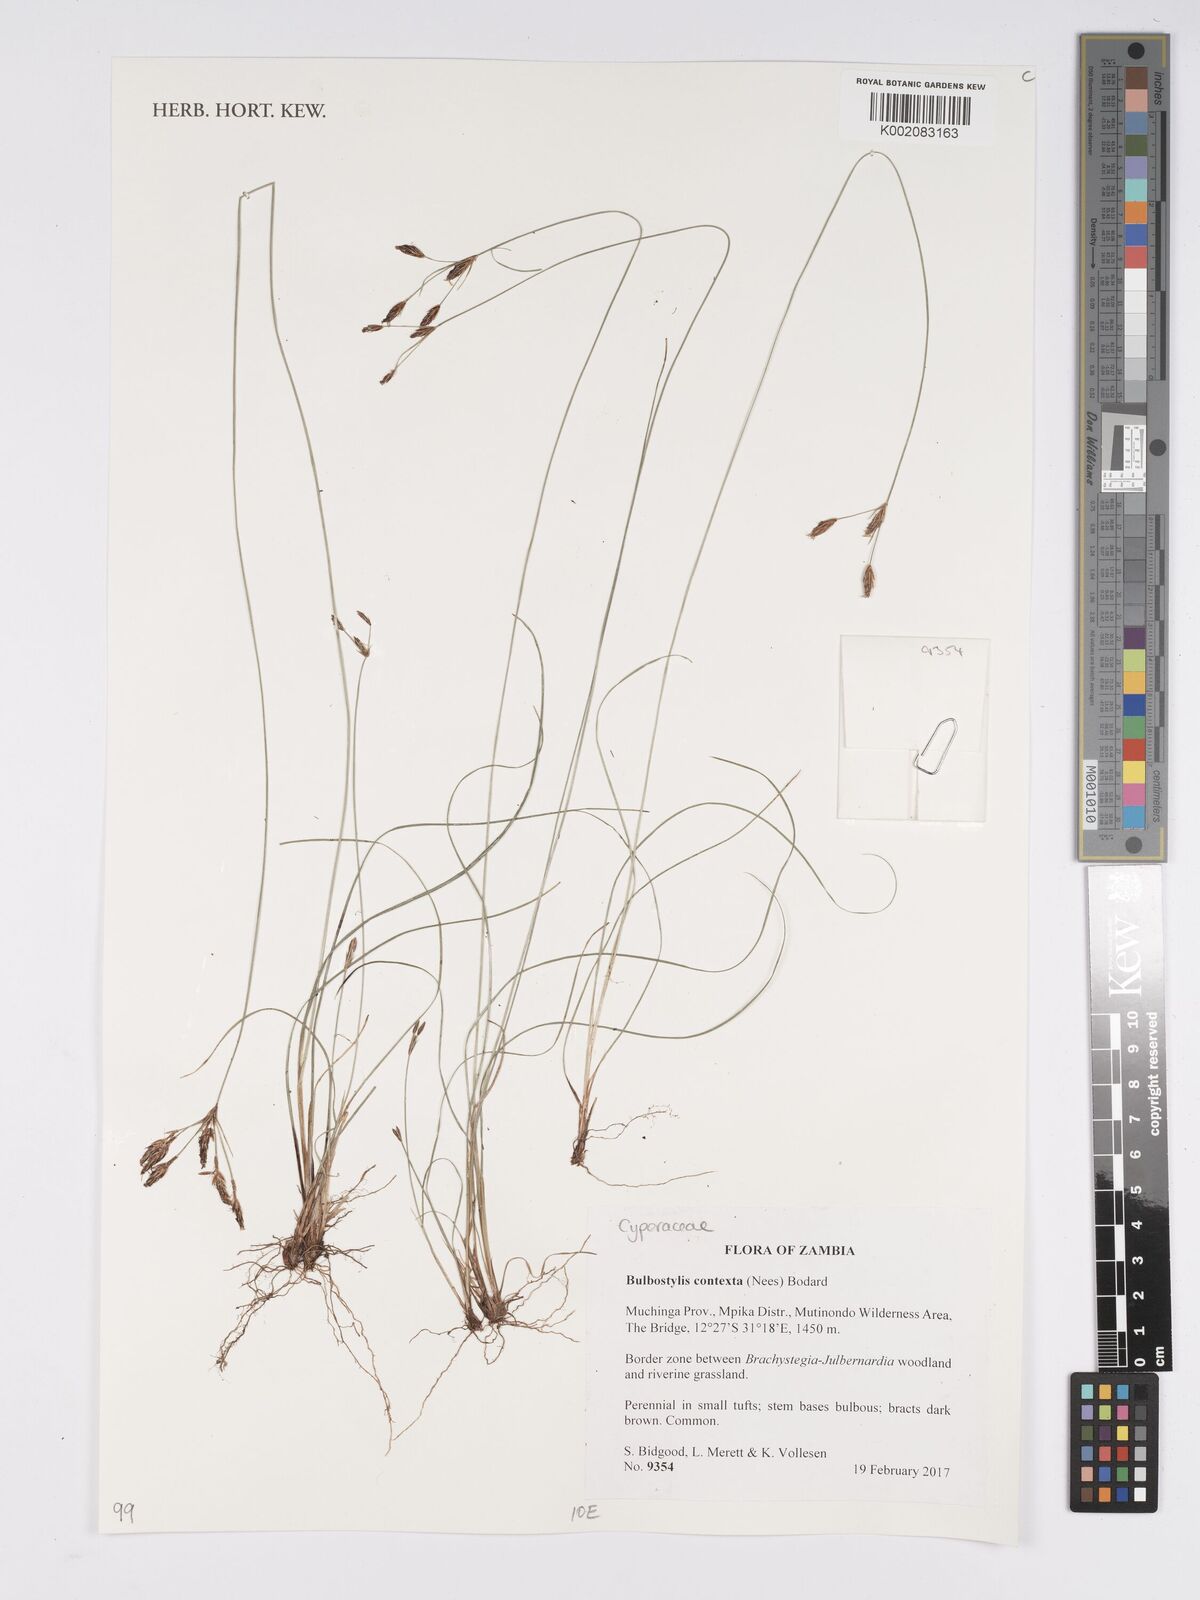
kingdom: Plantae
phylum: Tracheophyta
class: Liliopsida
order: Poales
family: Cyperaceae
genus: Bulbostylis
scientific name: Bulbostylis contexta
